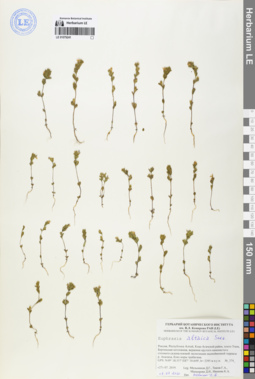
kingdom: Plantae
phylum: Tracheophyta
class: Magnoliopsida
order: Lamiales
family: Orobanchaceae
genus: Euphrasia
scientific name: Euphrasia altaica
